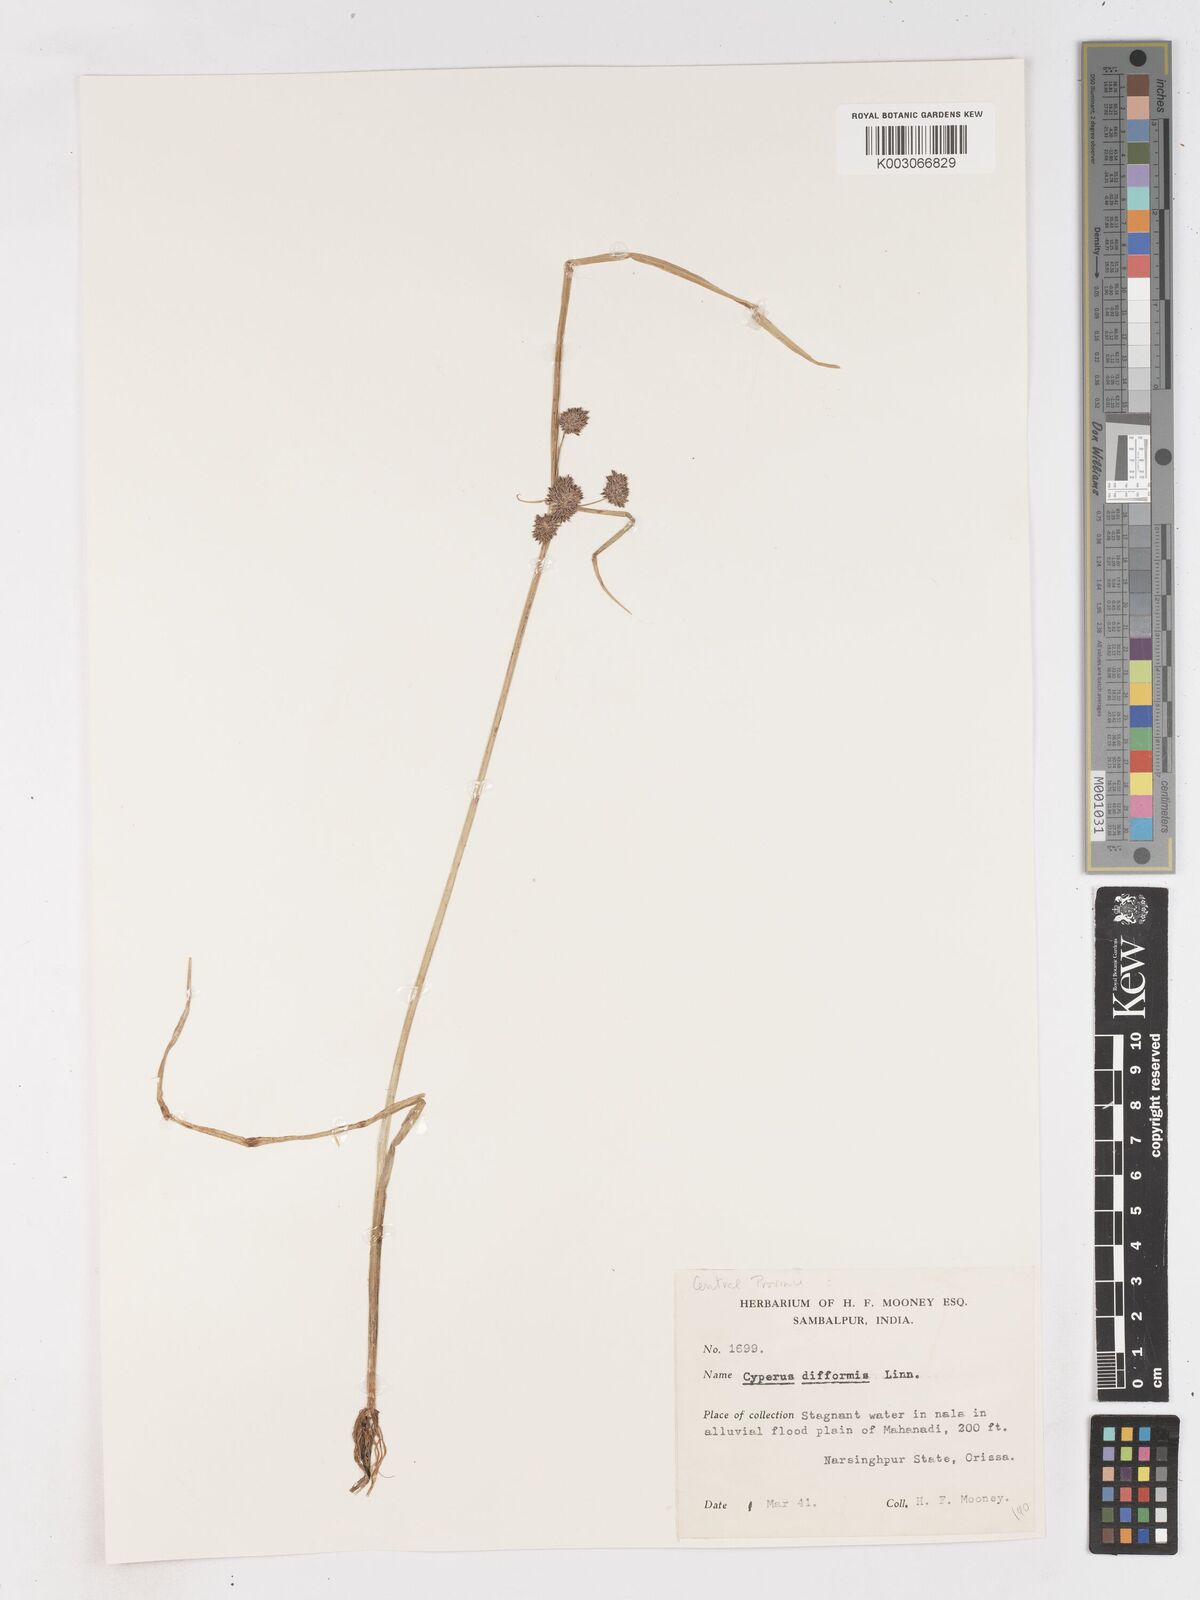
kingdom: Plantae
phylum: Tracheophyta
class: Liliopsida
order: Poales
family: Cyperaceae
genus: Cyperus
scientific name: Cyperus difformis
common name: Variable flatsedge
